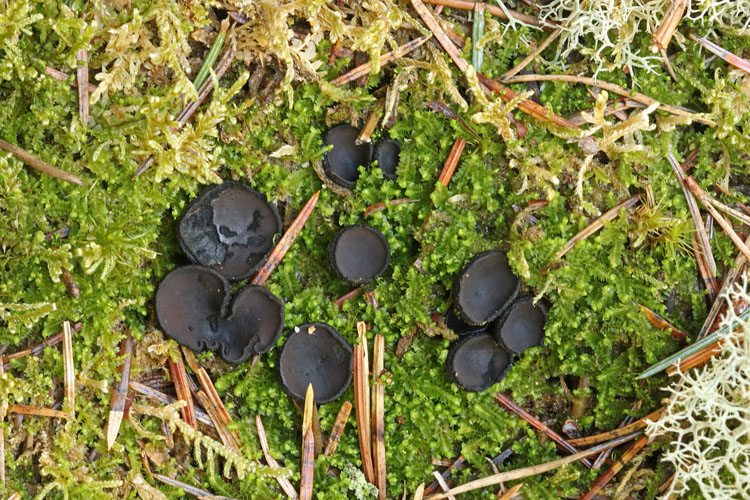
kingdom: Fungi
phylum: Ascomycota
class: Pezizomycetes
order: Pezizales
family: Sarcosomataceae
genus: Pseudoplectania
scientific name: Pseudoplectania nigrella
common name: almindelig sortbæger
